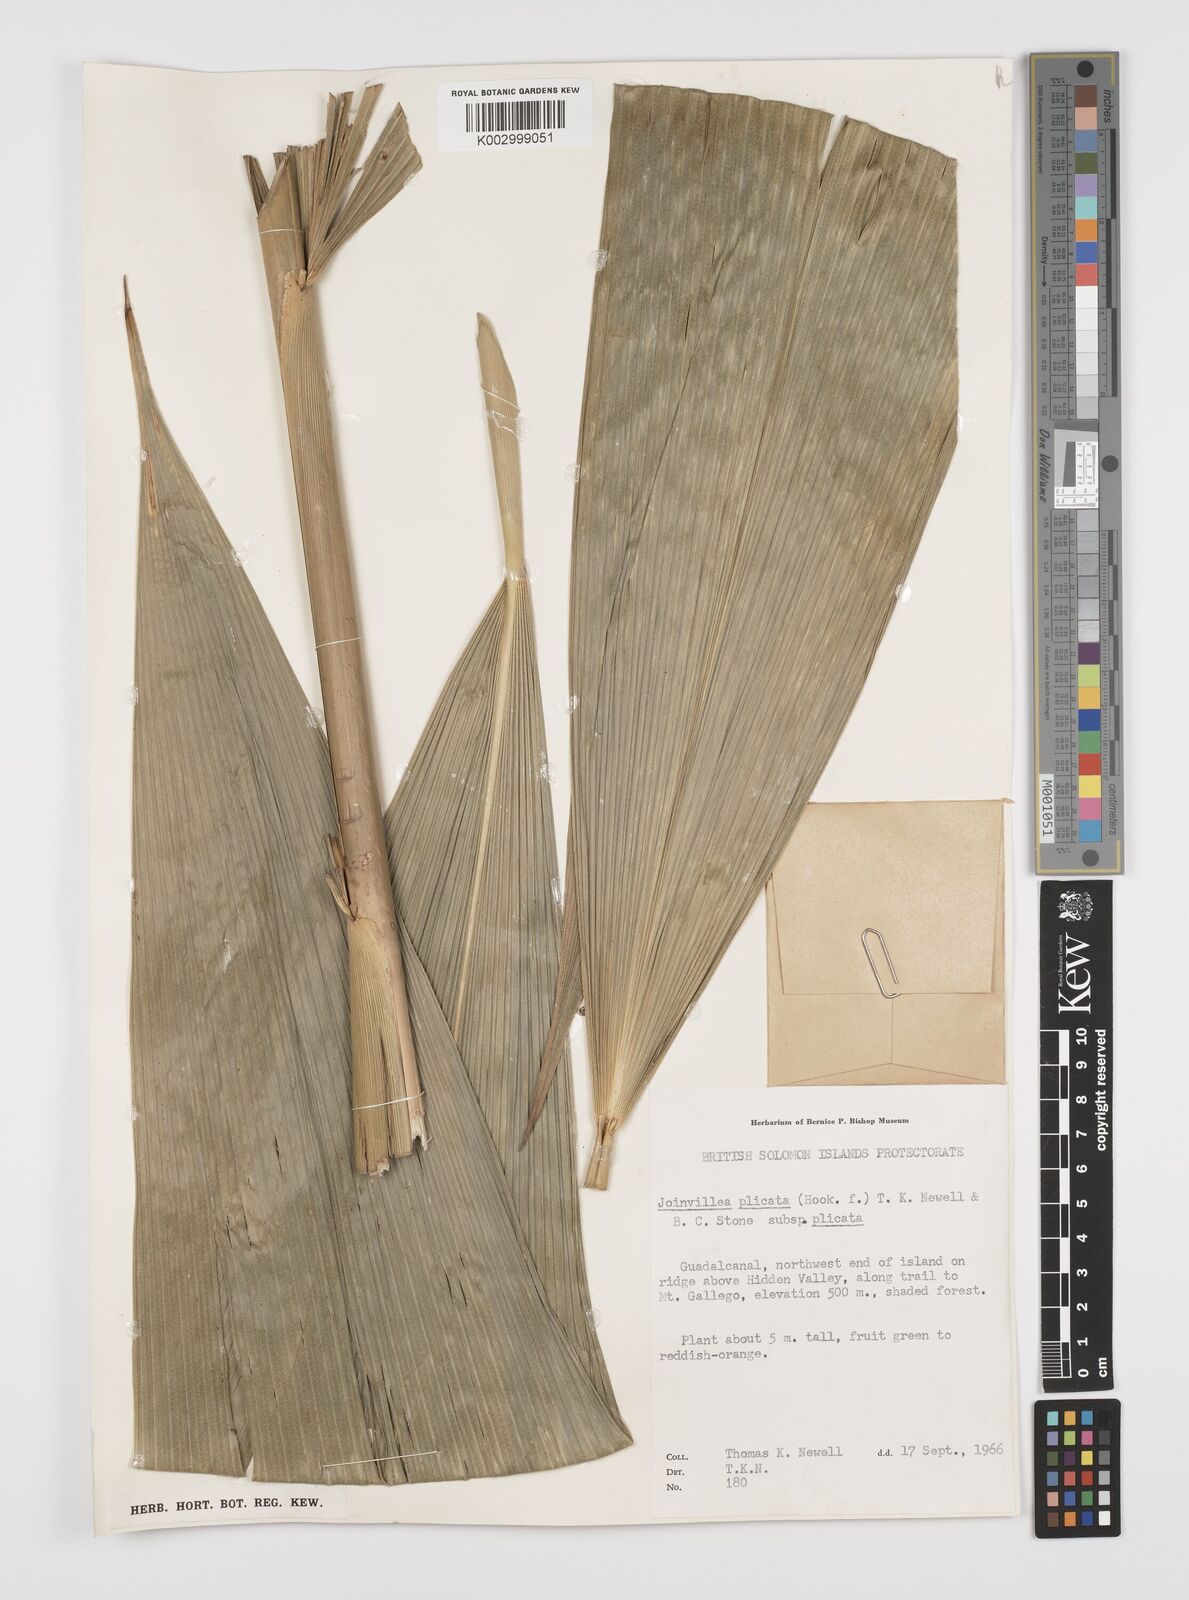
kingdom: Plantae
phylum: Tracheophyta
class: Liliopsida
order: Poales
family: Joinvilleaceae
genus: Joinvillea
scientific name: Joinvillea plicata
